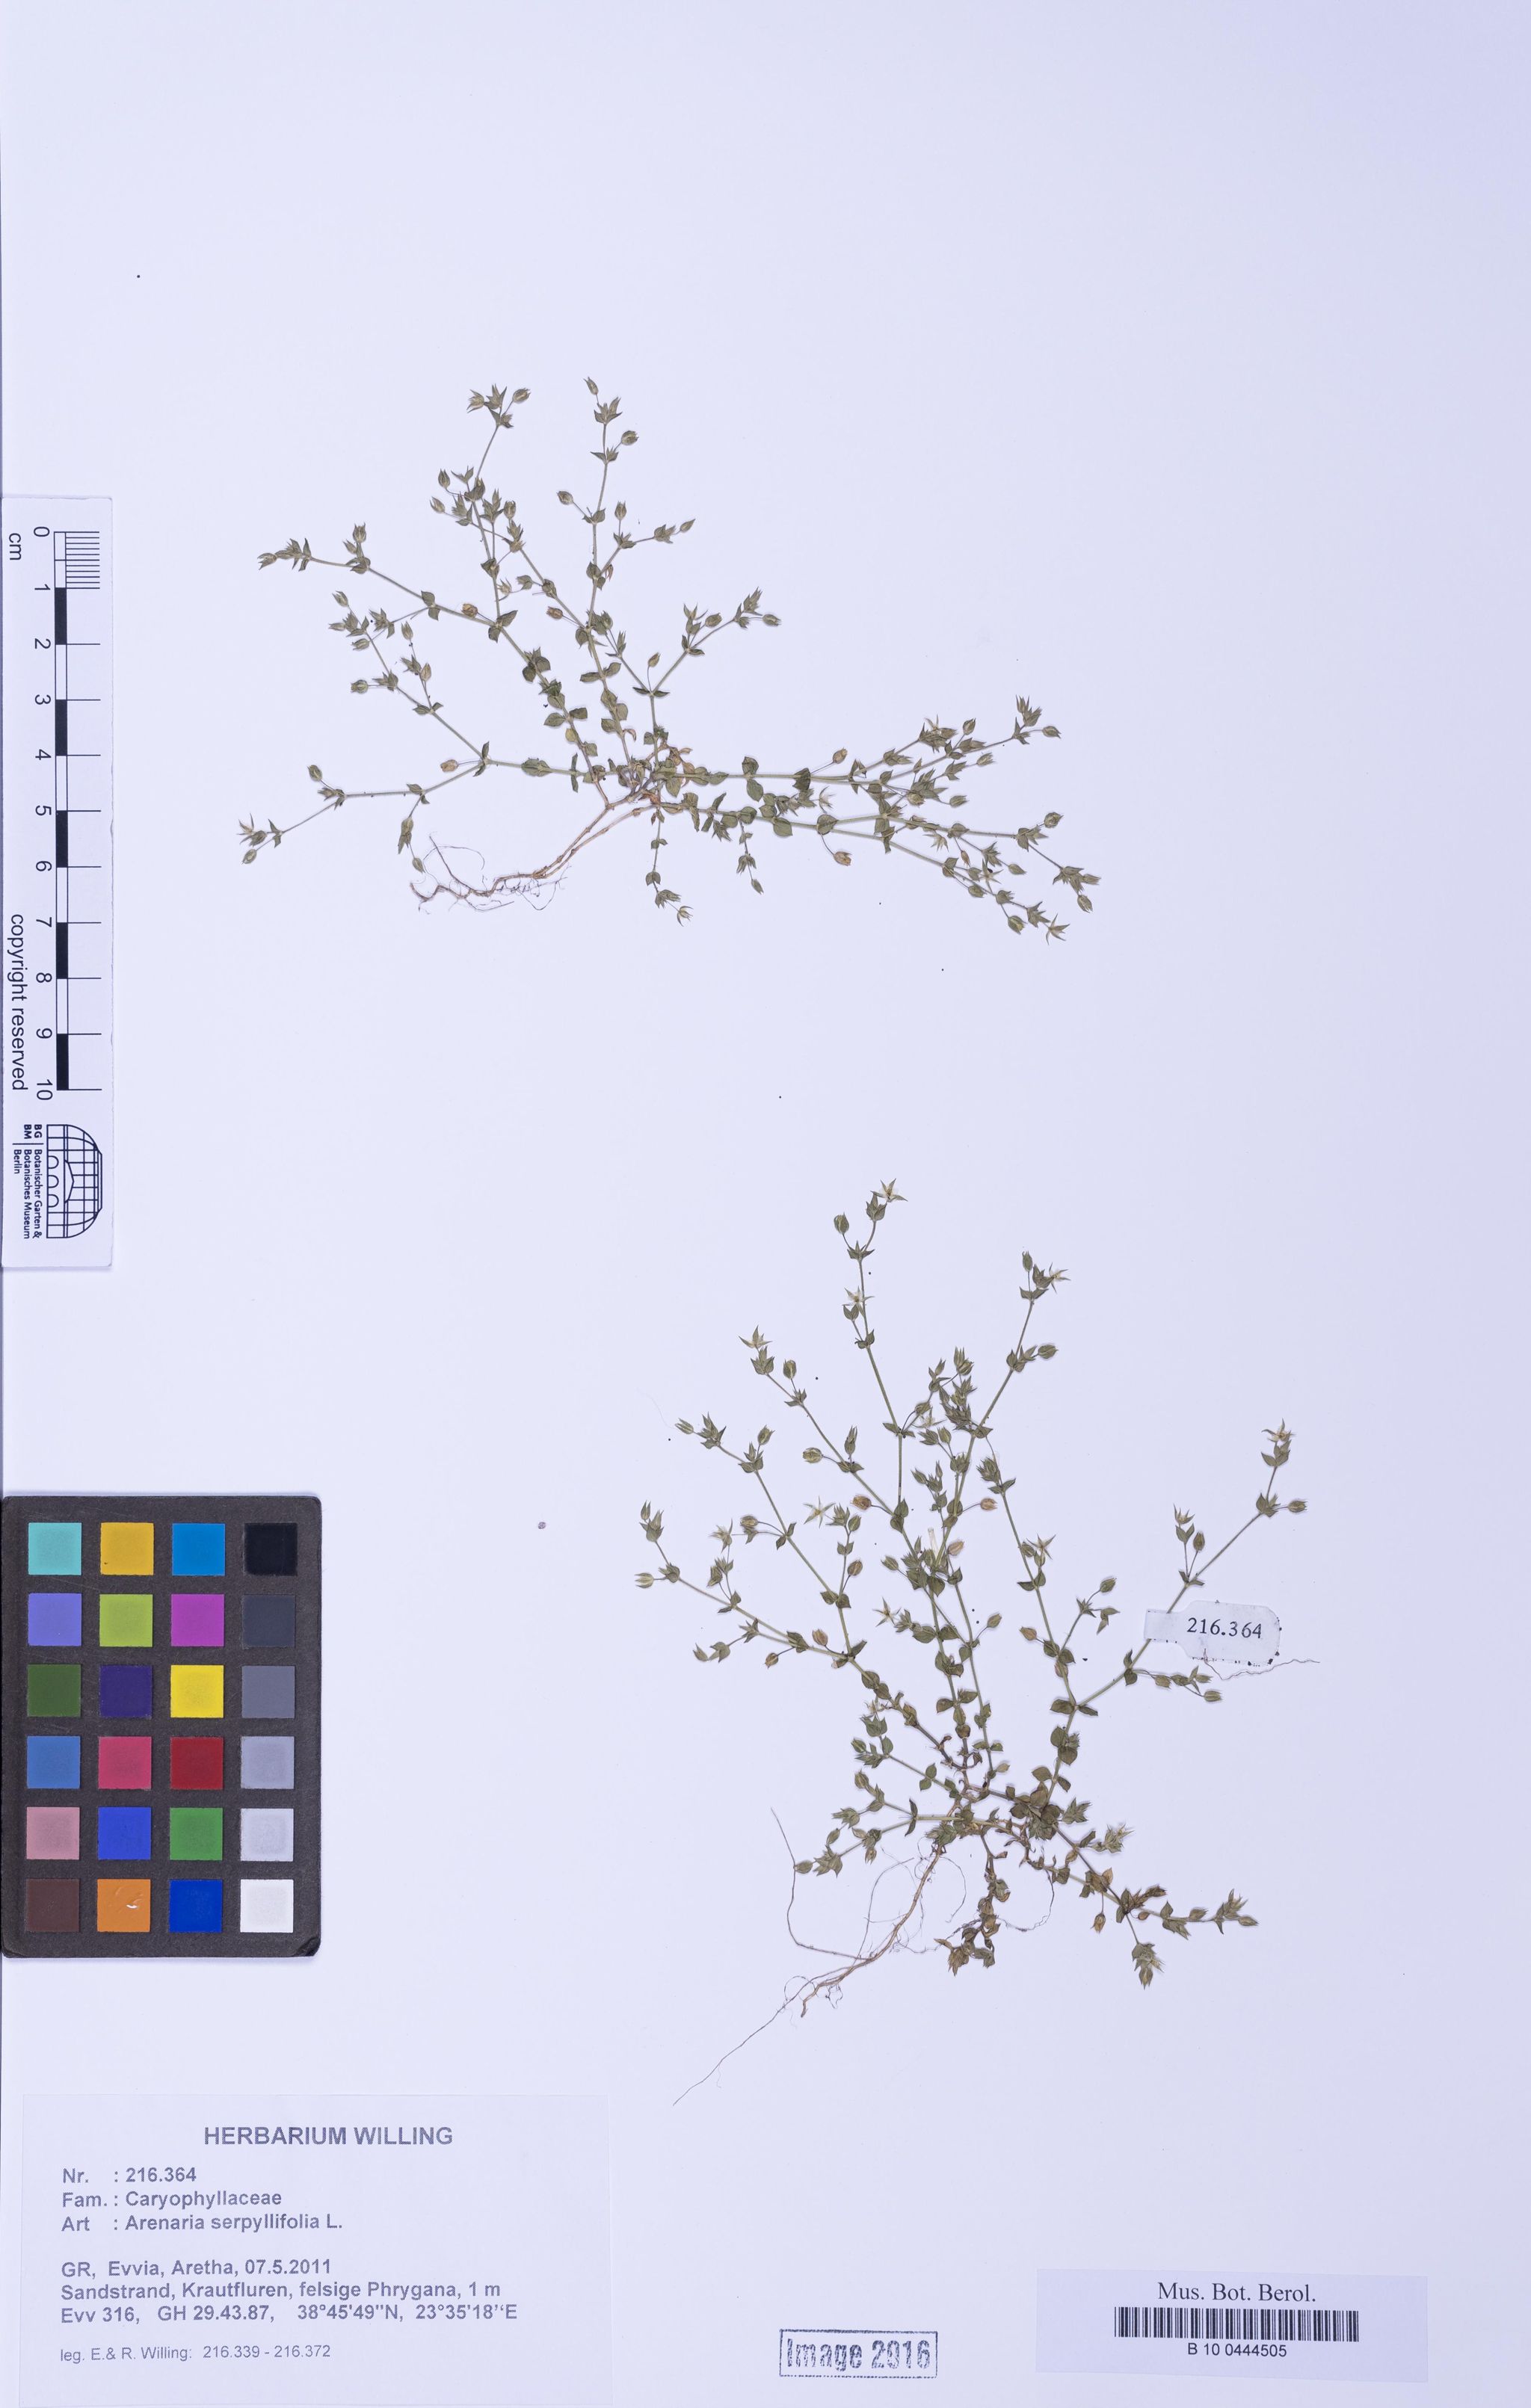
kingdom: Plantae
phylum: Tracheophyta
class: Magnoliopsida
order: Caryophyllales
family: Caryophyllaceae
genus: Arenaria
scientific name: Arenaria serpyllifolia
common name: Thyme-leaved sandwort
